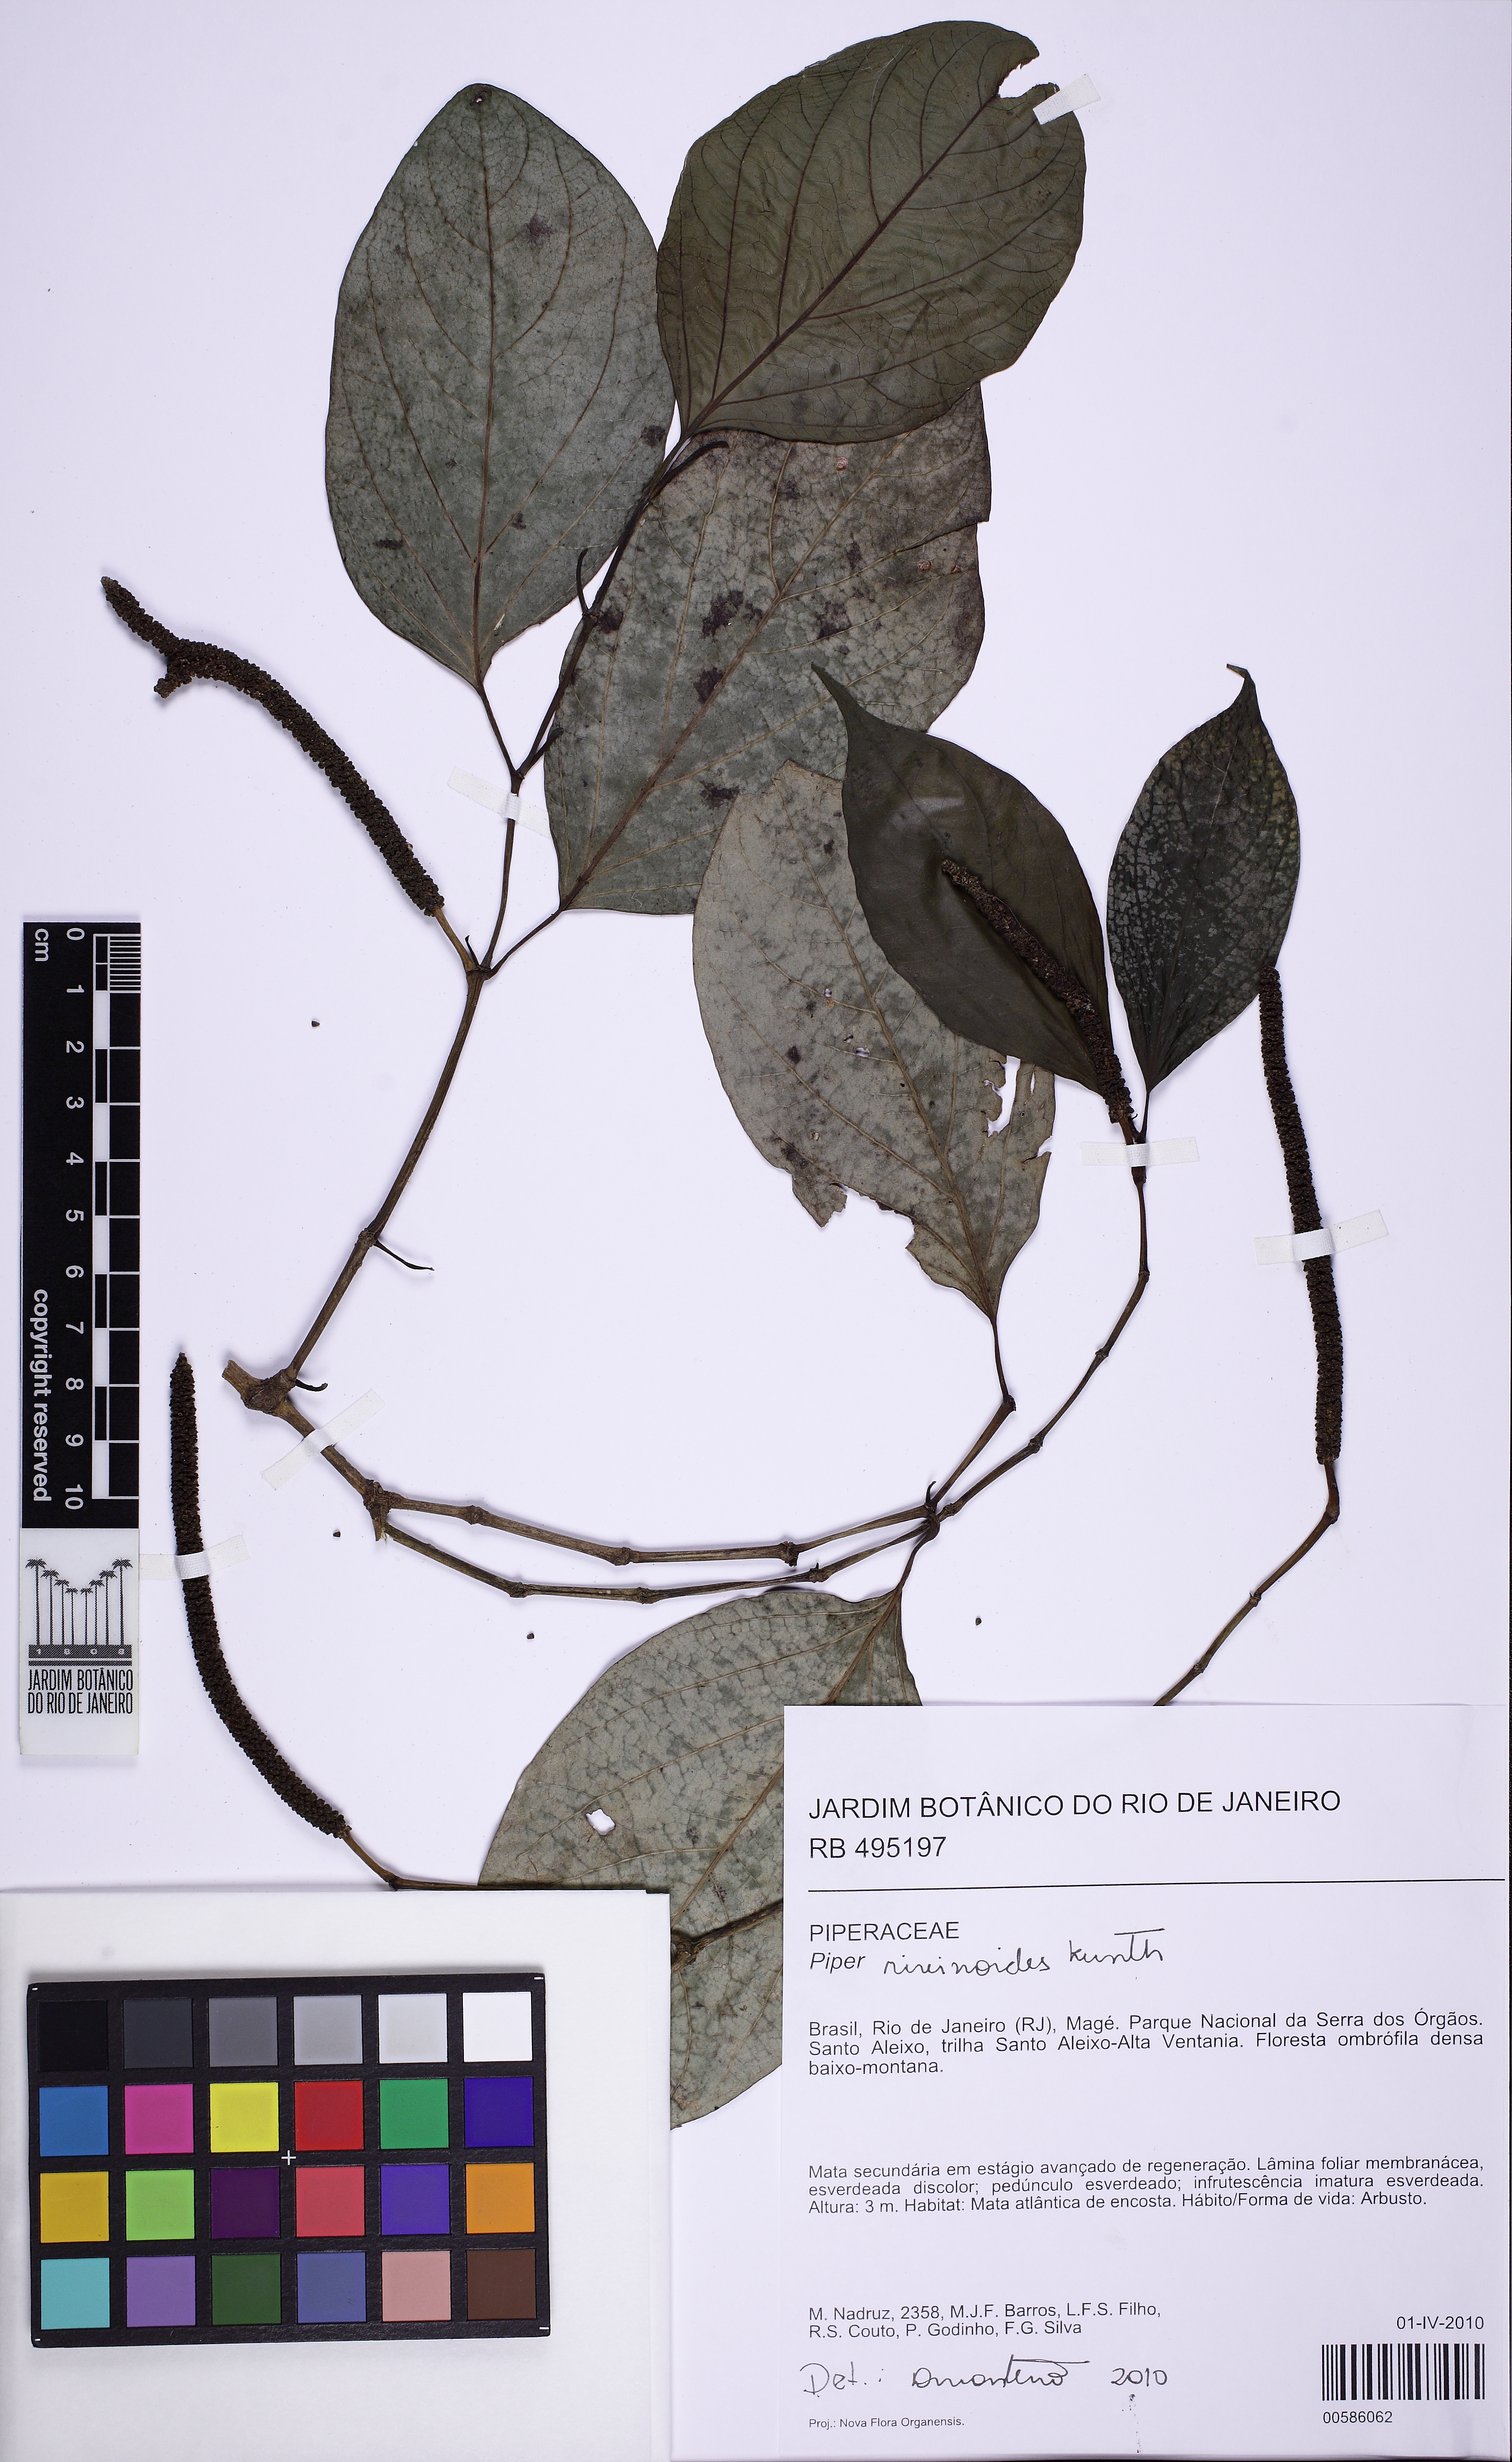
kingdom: Plantae
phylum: Tracheophyta
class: Magnoliopsida
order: Piperales
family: Piperaceae
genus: Piper
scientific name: Piper rivinoides
